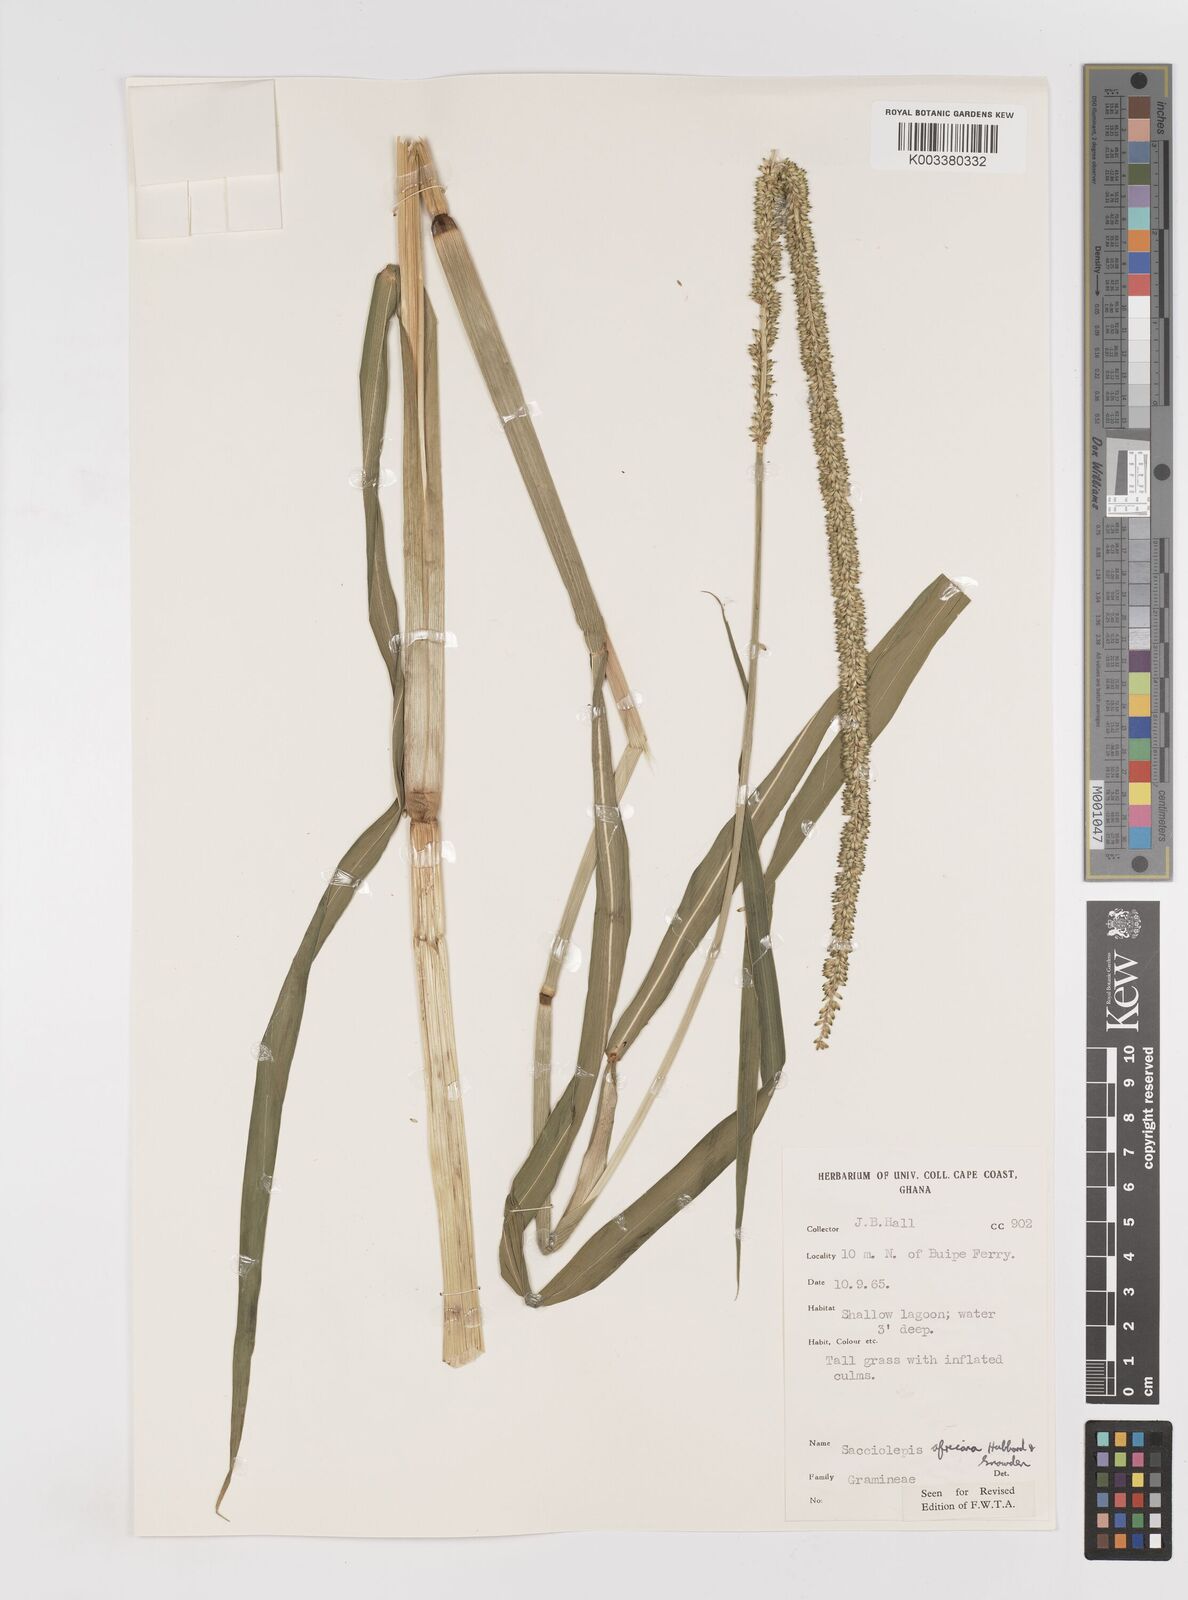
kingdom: Plantae
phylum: Tracheophyta
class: Liliopsida
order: Poales
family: Poaceae
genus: Sacciolepis
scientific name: Sacciolepis africana
